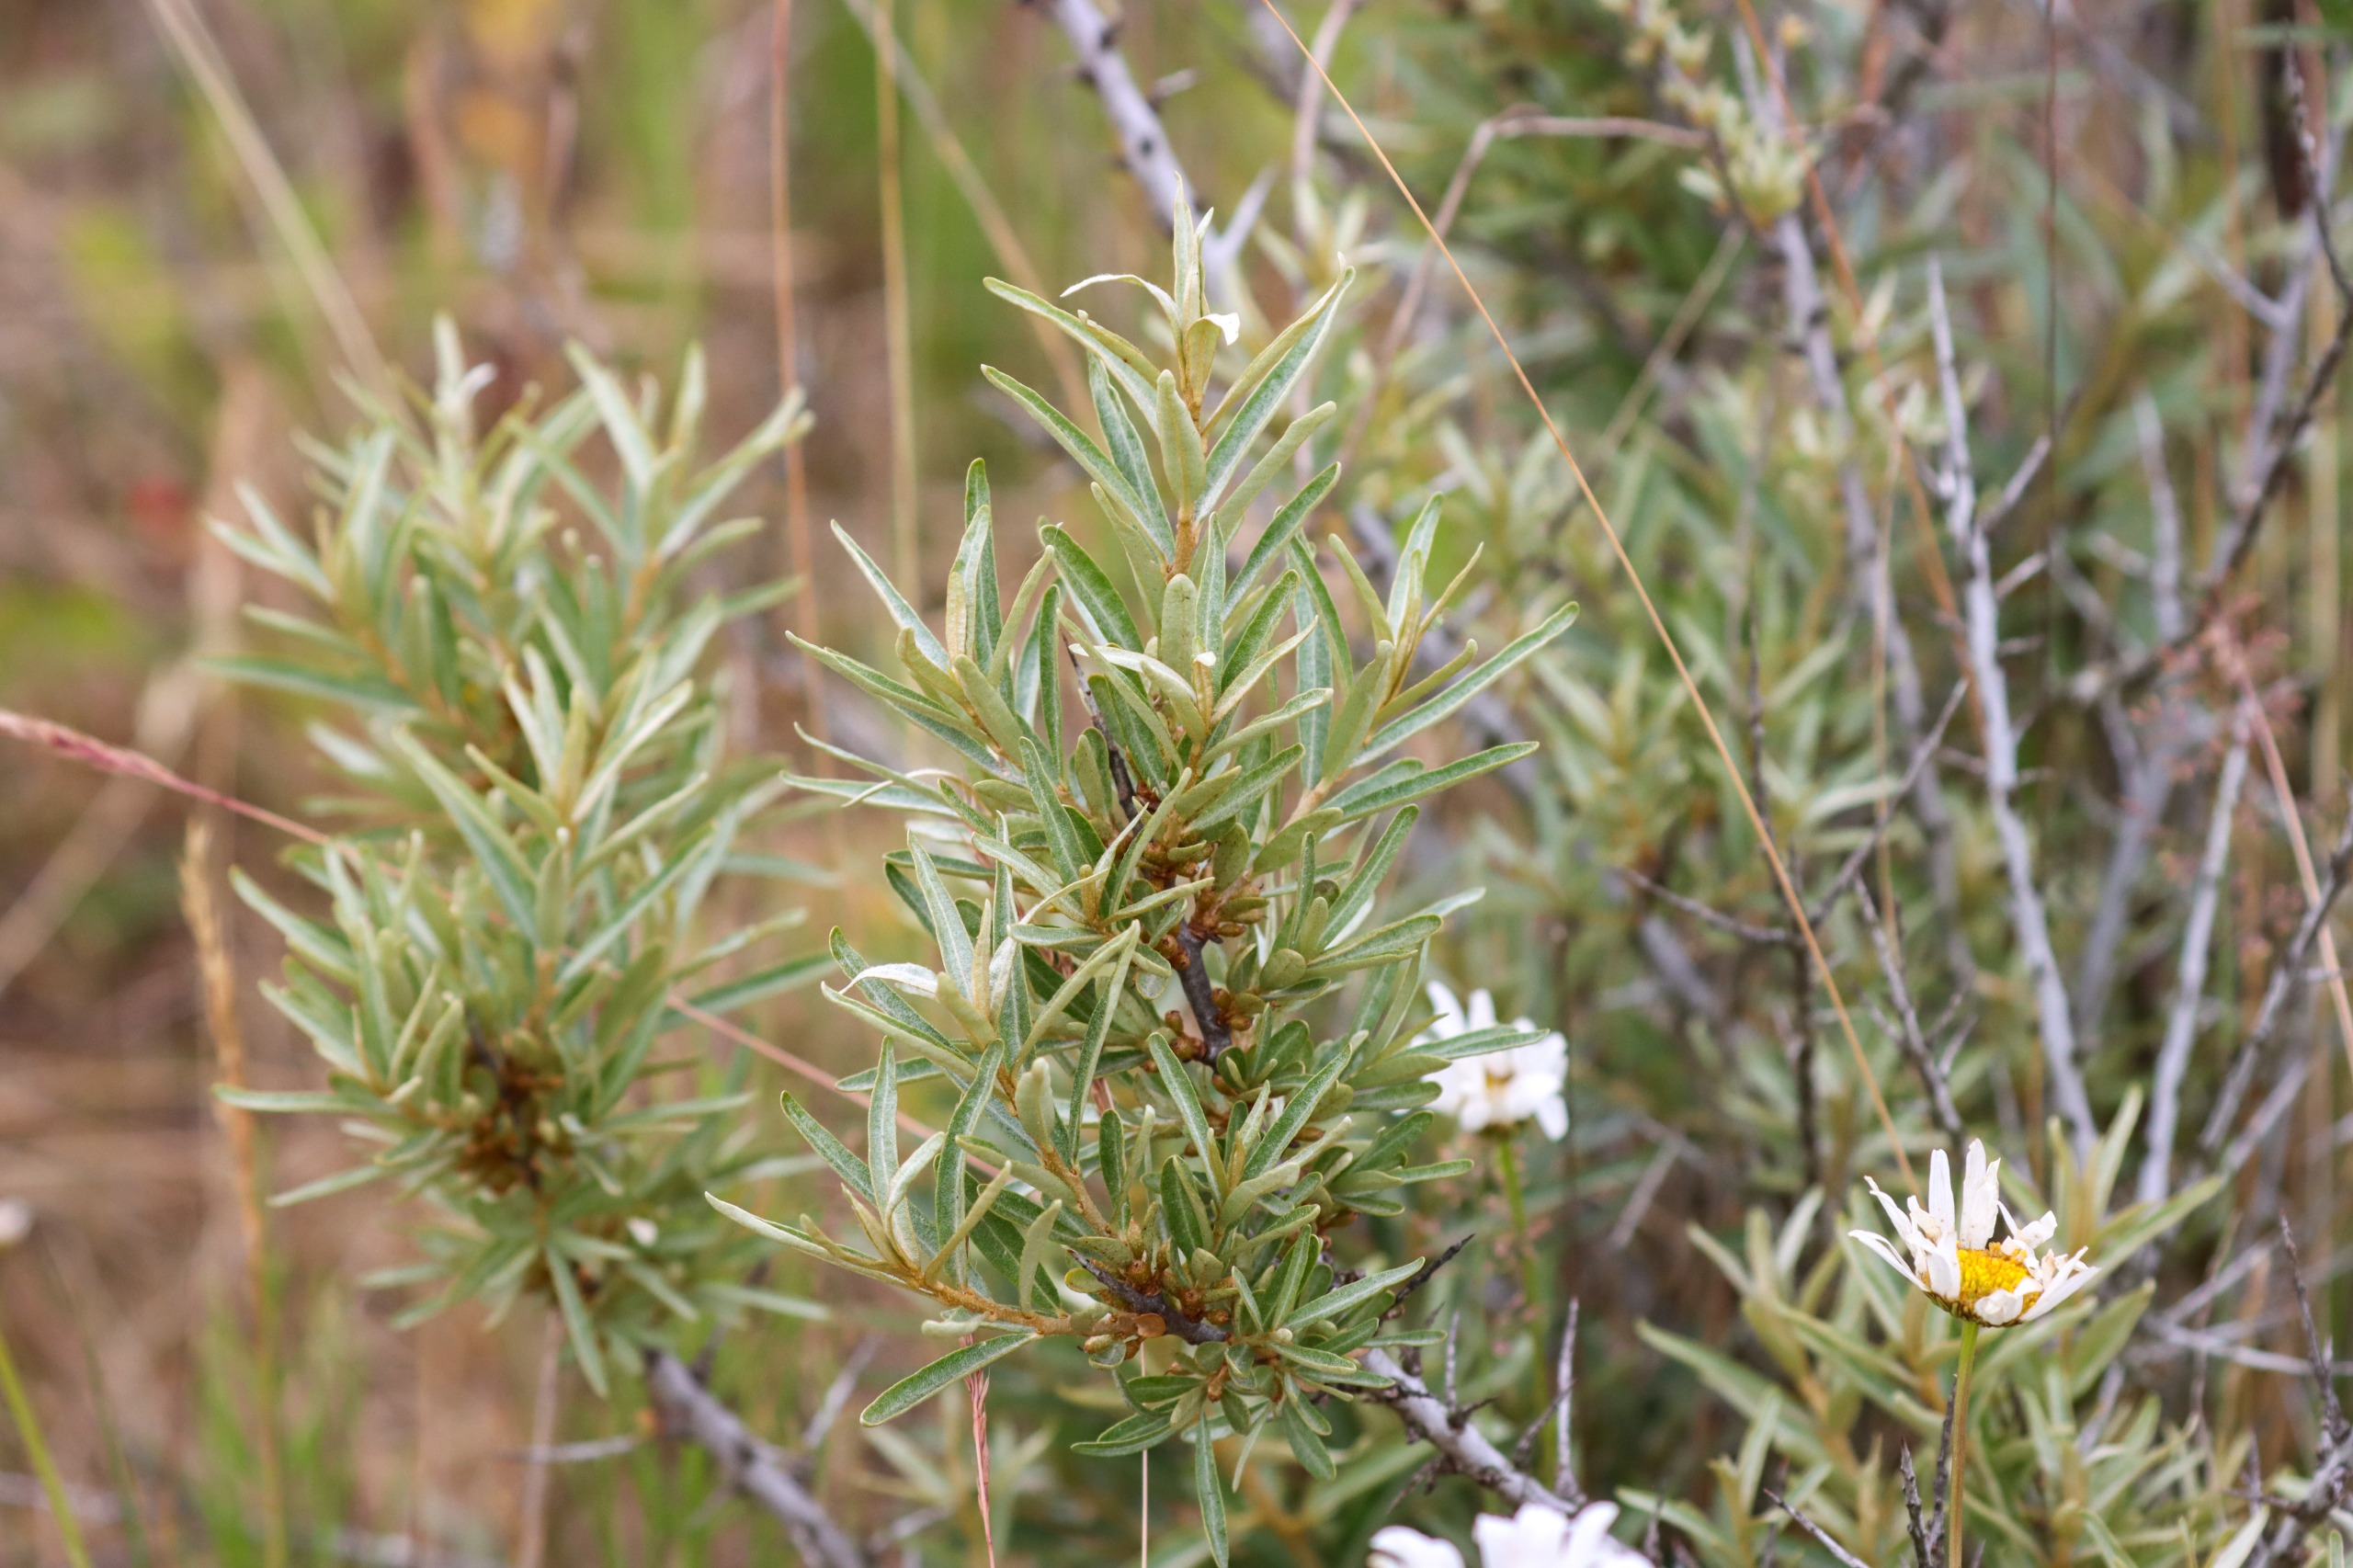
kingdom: Plantae
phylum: Tracheophyta
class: Magnoliopsida
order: Rosales
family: Elaeagnaceae
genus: Hippophae
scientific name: Hippophae rhamnoides
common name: Havtorn
